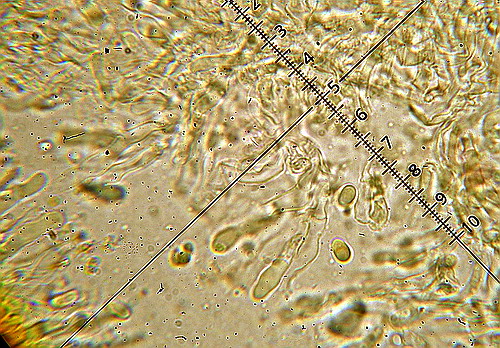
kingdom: Fungi
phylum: Basidiomycota
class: Agaricomycetes
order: Corticiales
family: Corticiaceae
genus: Lyomyces
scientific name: Lyomyces sambuci
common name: almindelig hyldehinde
